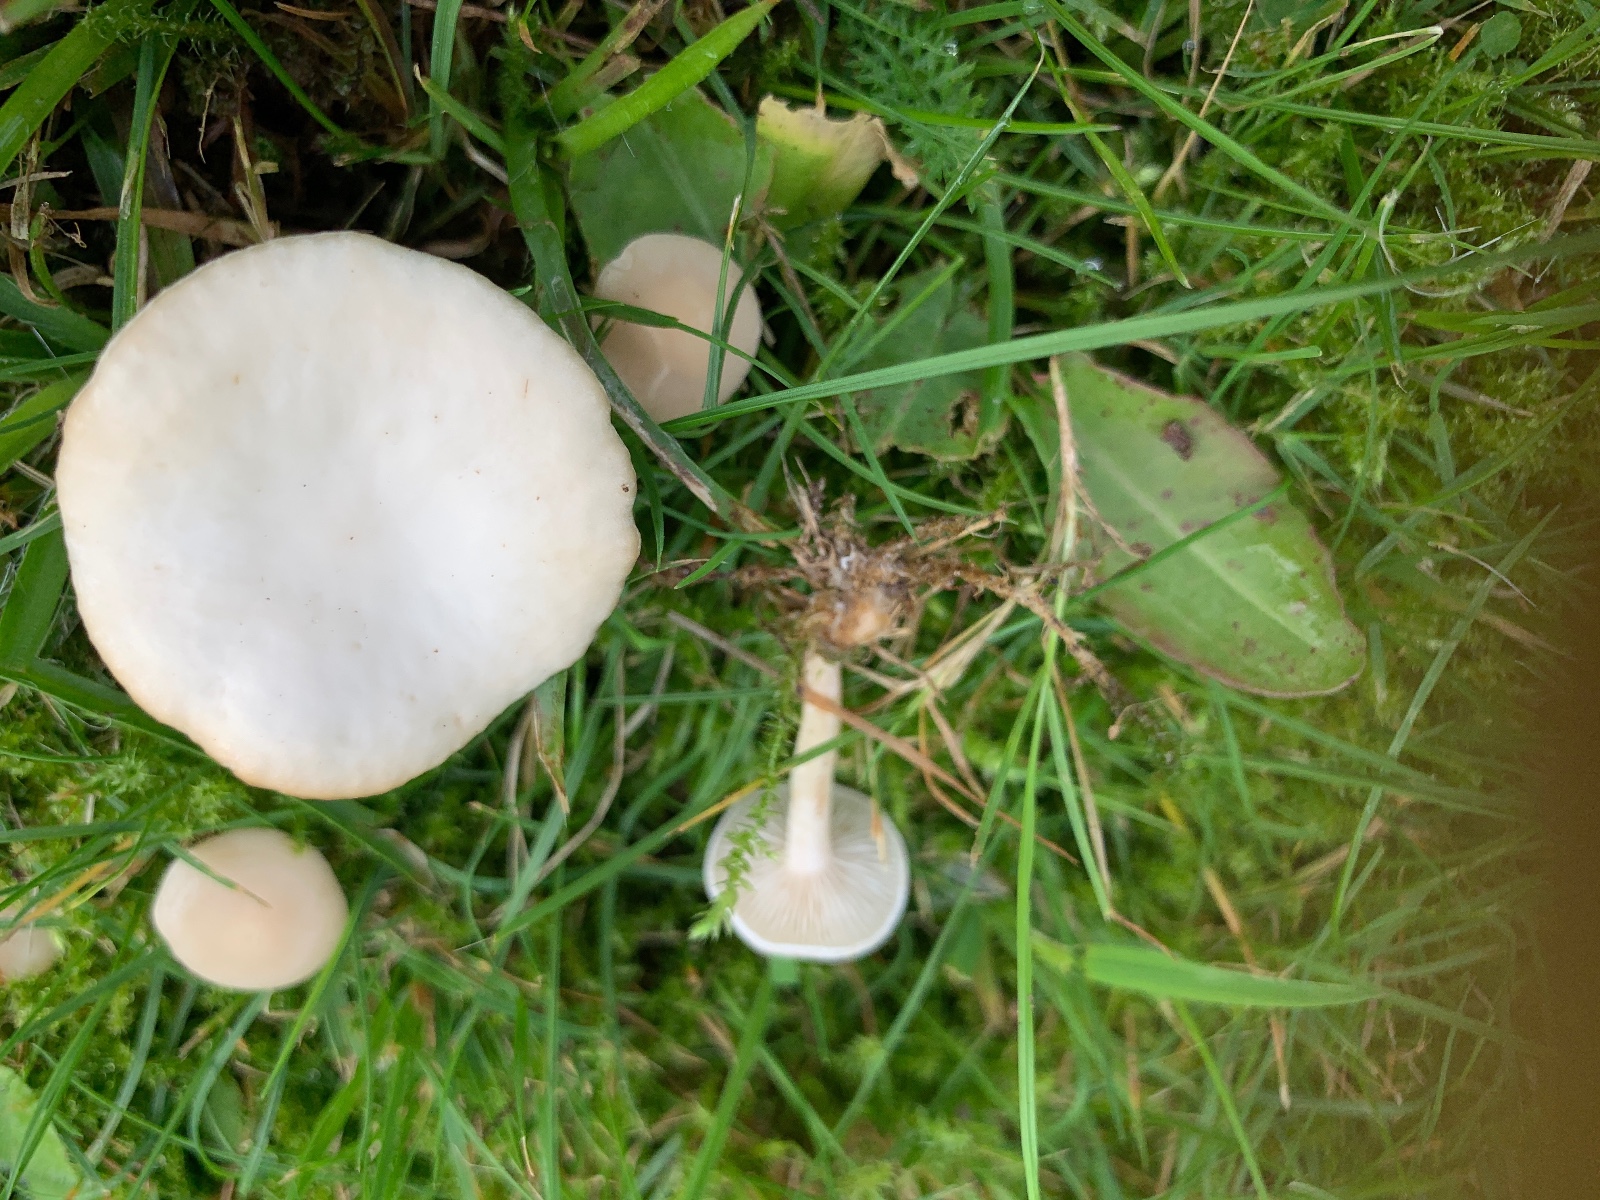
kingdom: Fungi
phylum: Basidiomycota
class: Agaricomycetes
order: Agaricales
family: Tricholomataceae
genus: Clitocybe
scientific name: Clitocybe agrestis
